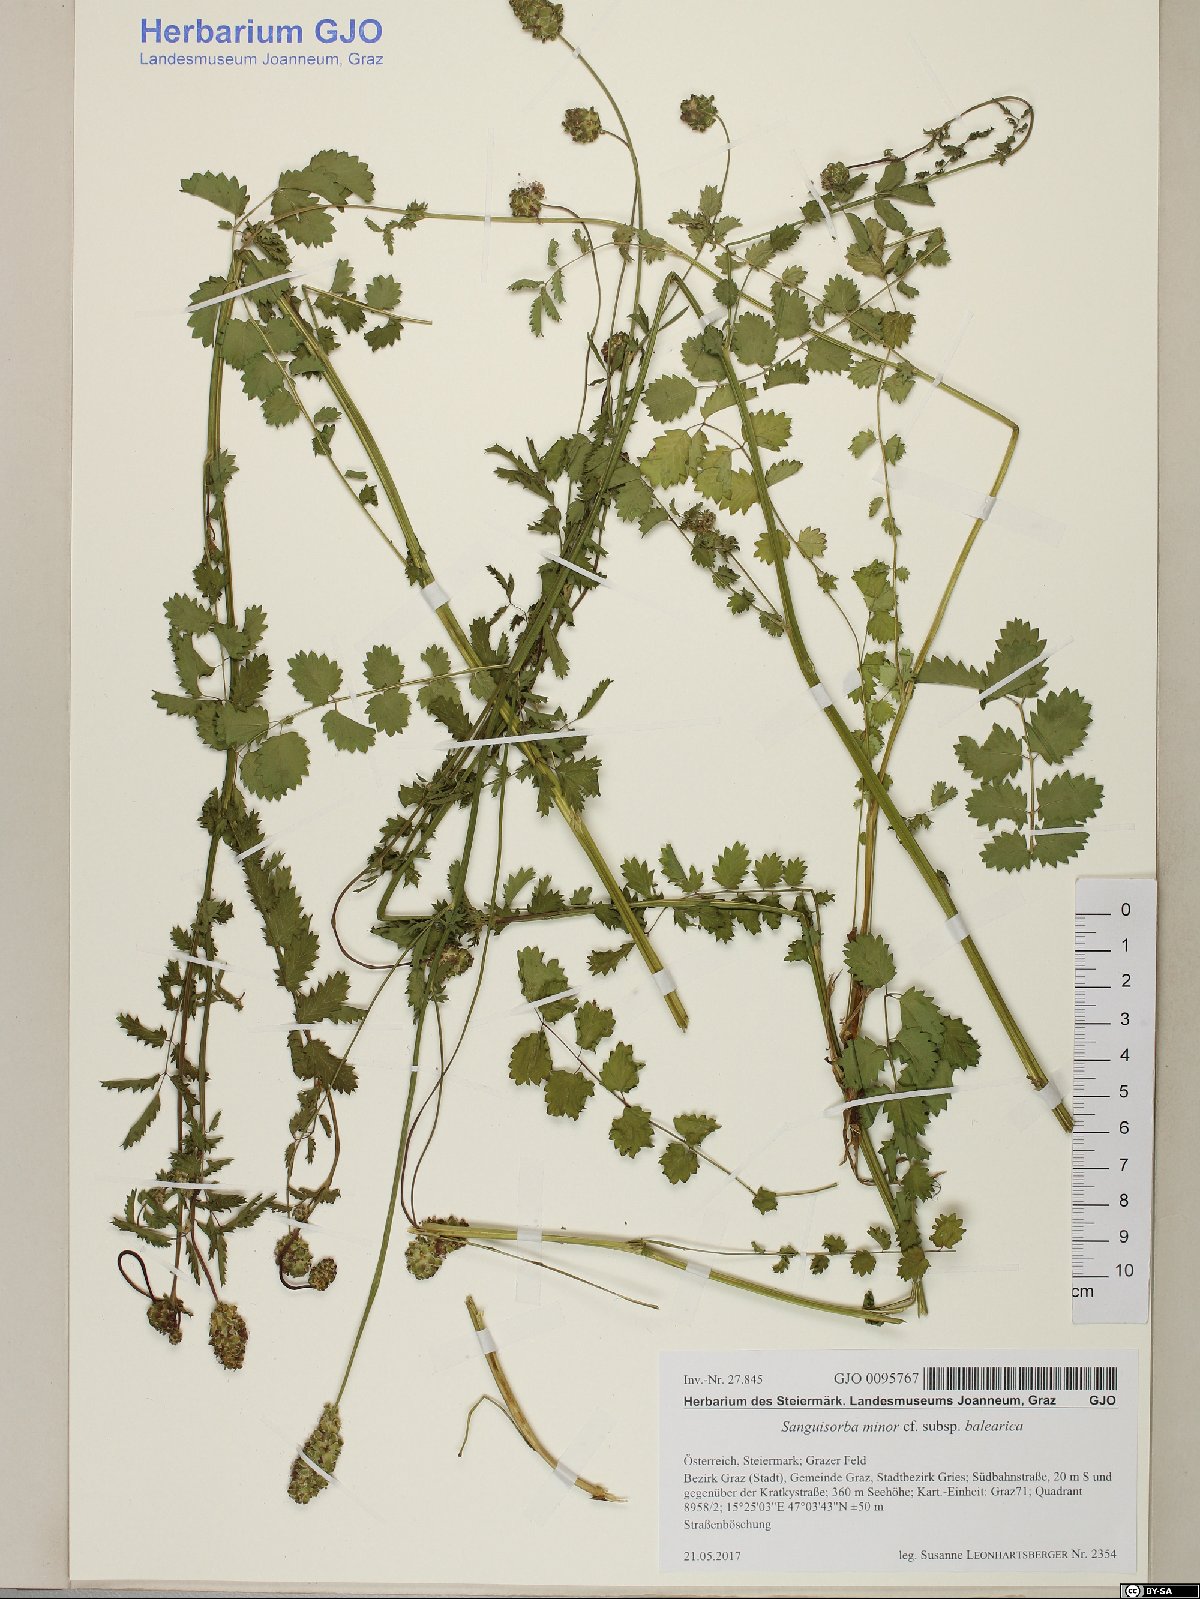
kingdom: Plantae
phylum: Tracheophyta
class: Magnoliopsida
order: Rosales
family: Rosaceae
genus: Poterium
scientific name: Poterium sanguisorba
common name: Salad burnet
